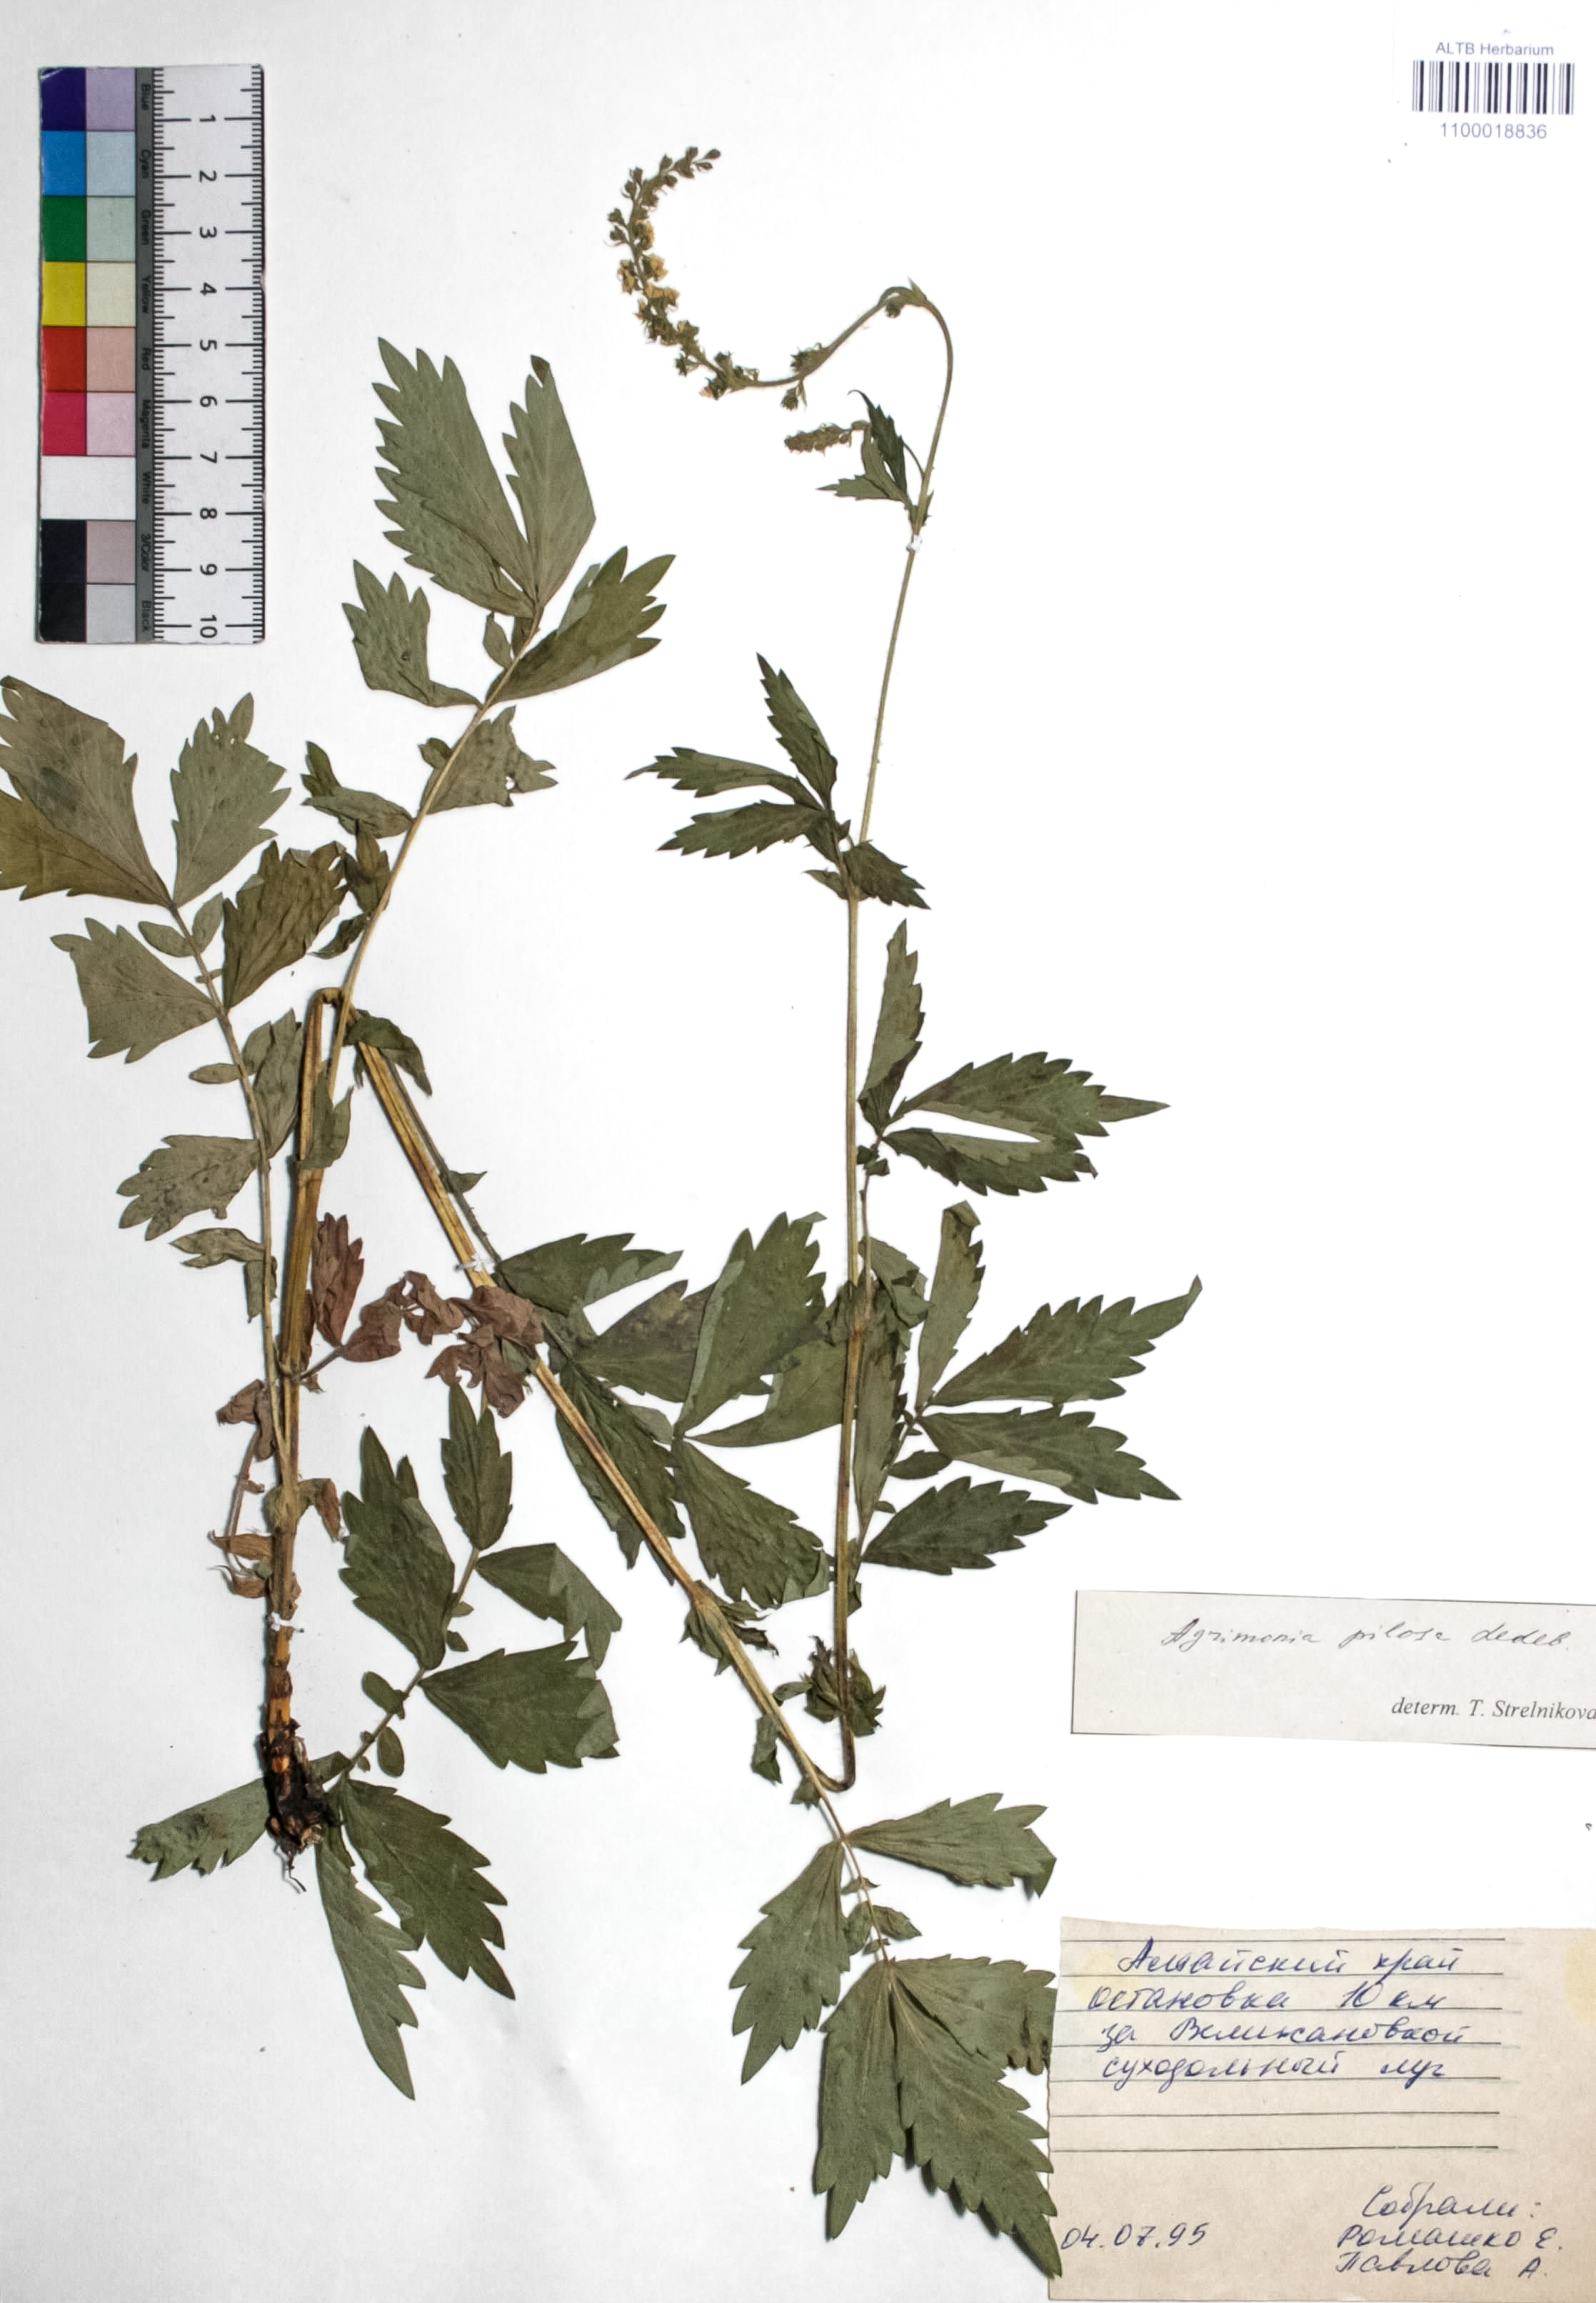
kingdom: Plantae
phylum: Tracheophyta
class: Magnoliopsida
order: Rosales
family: Rosaceae
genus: Agrimonia
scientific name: Agrimonia pilosa
